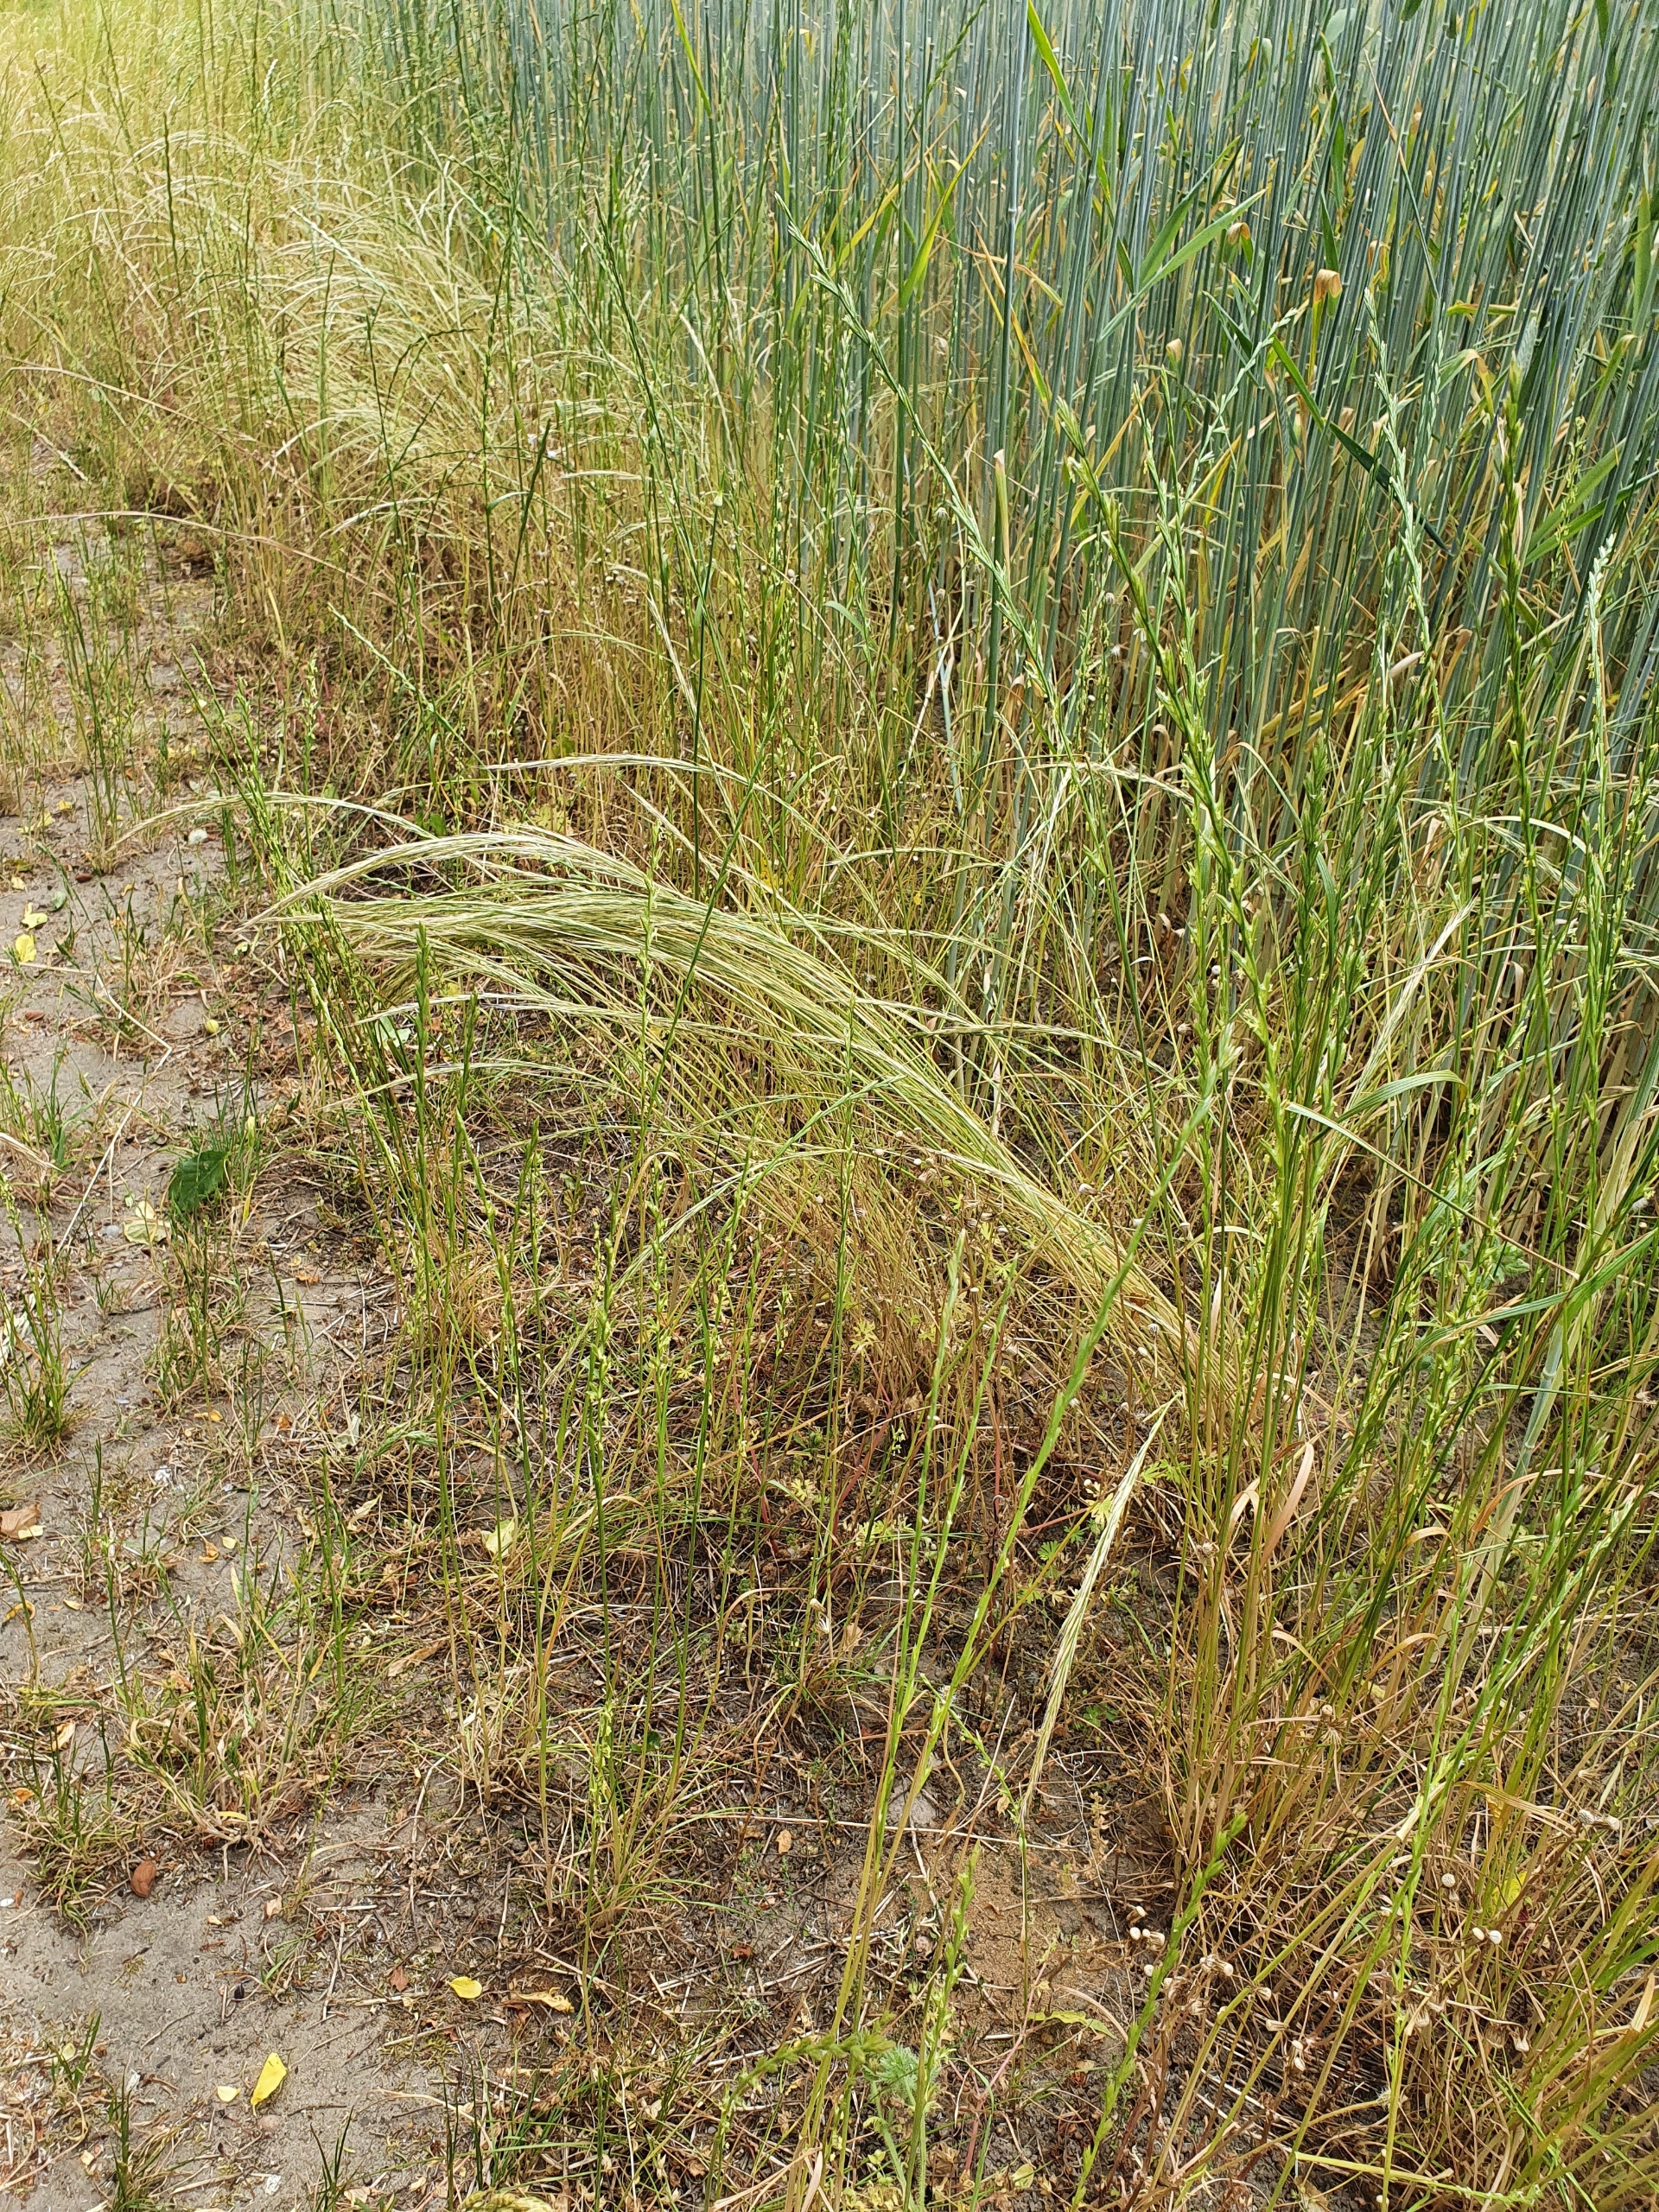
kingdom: Plantae
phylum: Tracheophyta
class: Liliopsida
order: Poales
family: Poaceae
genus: Festuca
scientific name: Festuca myuros
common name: Stor væselhale
